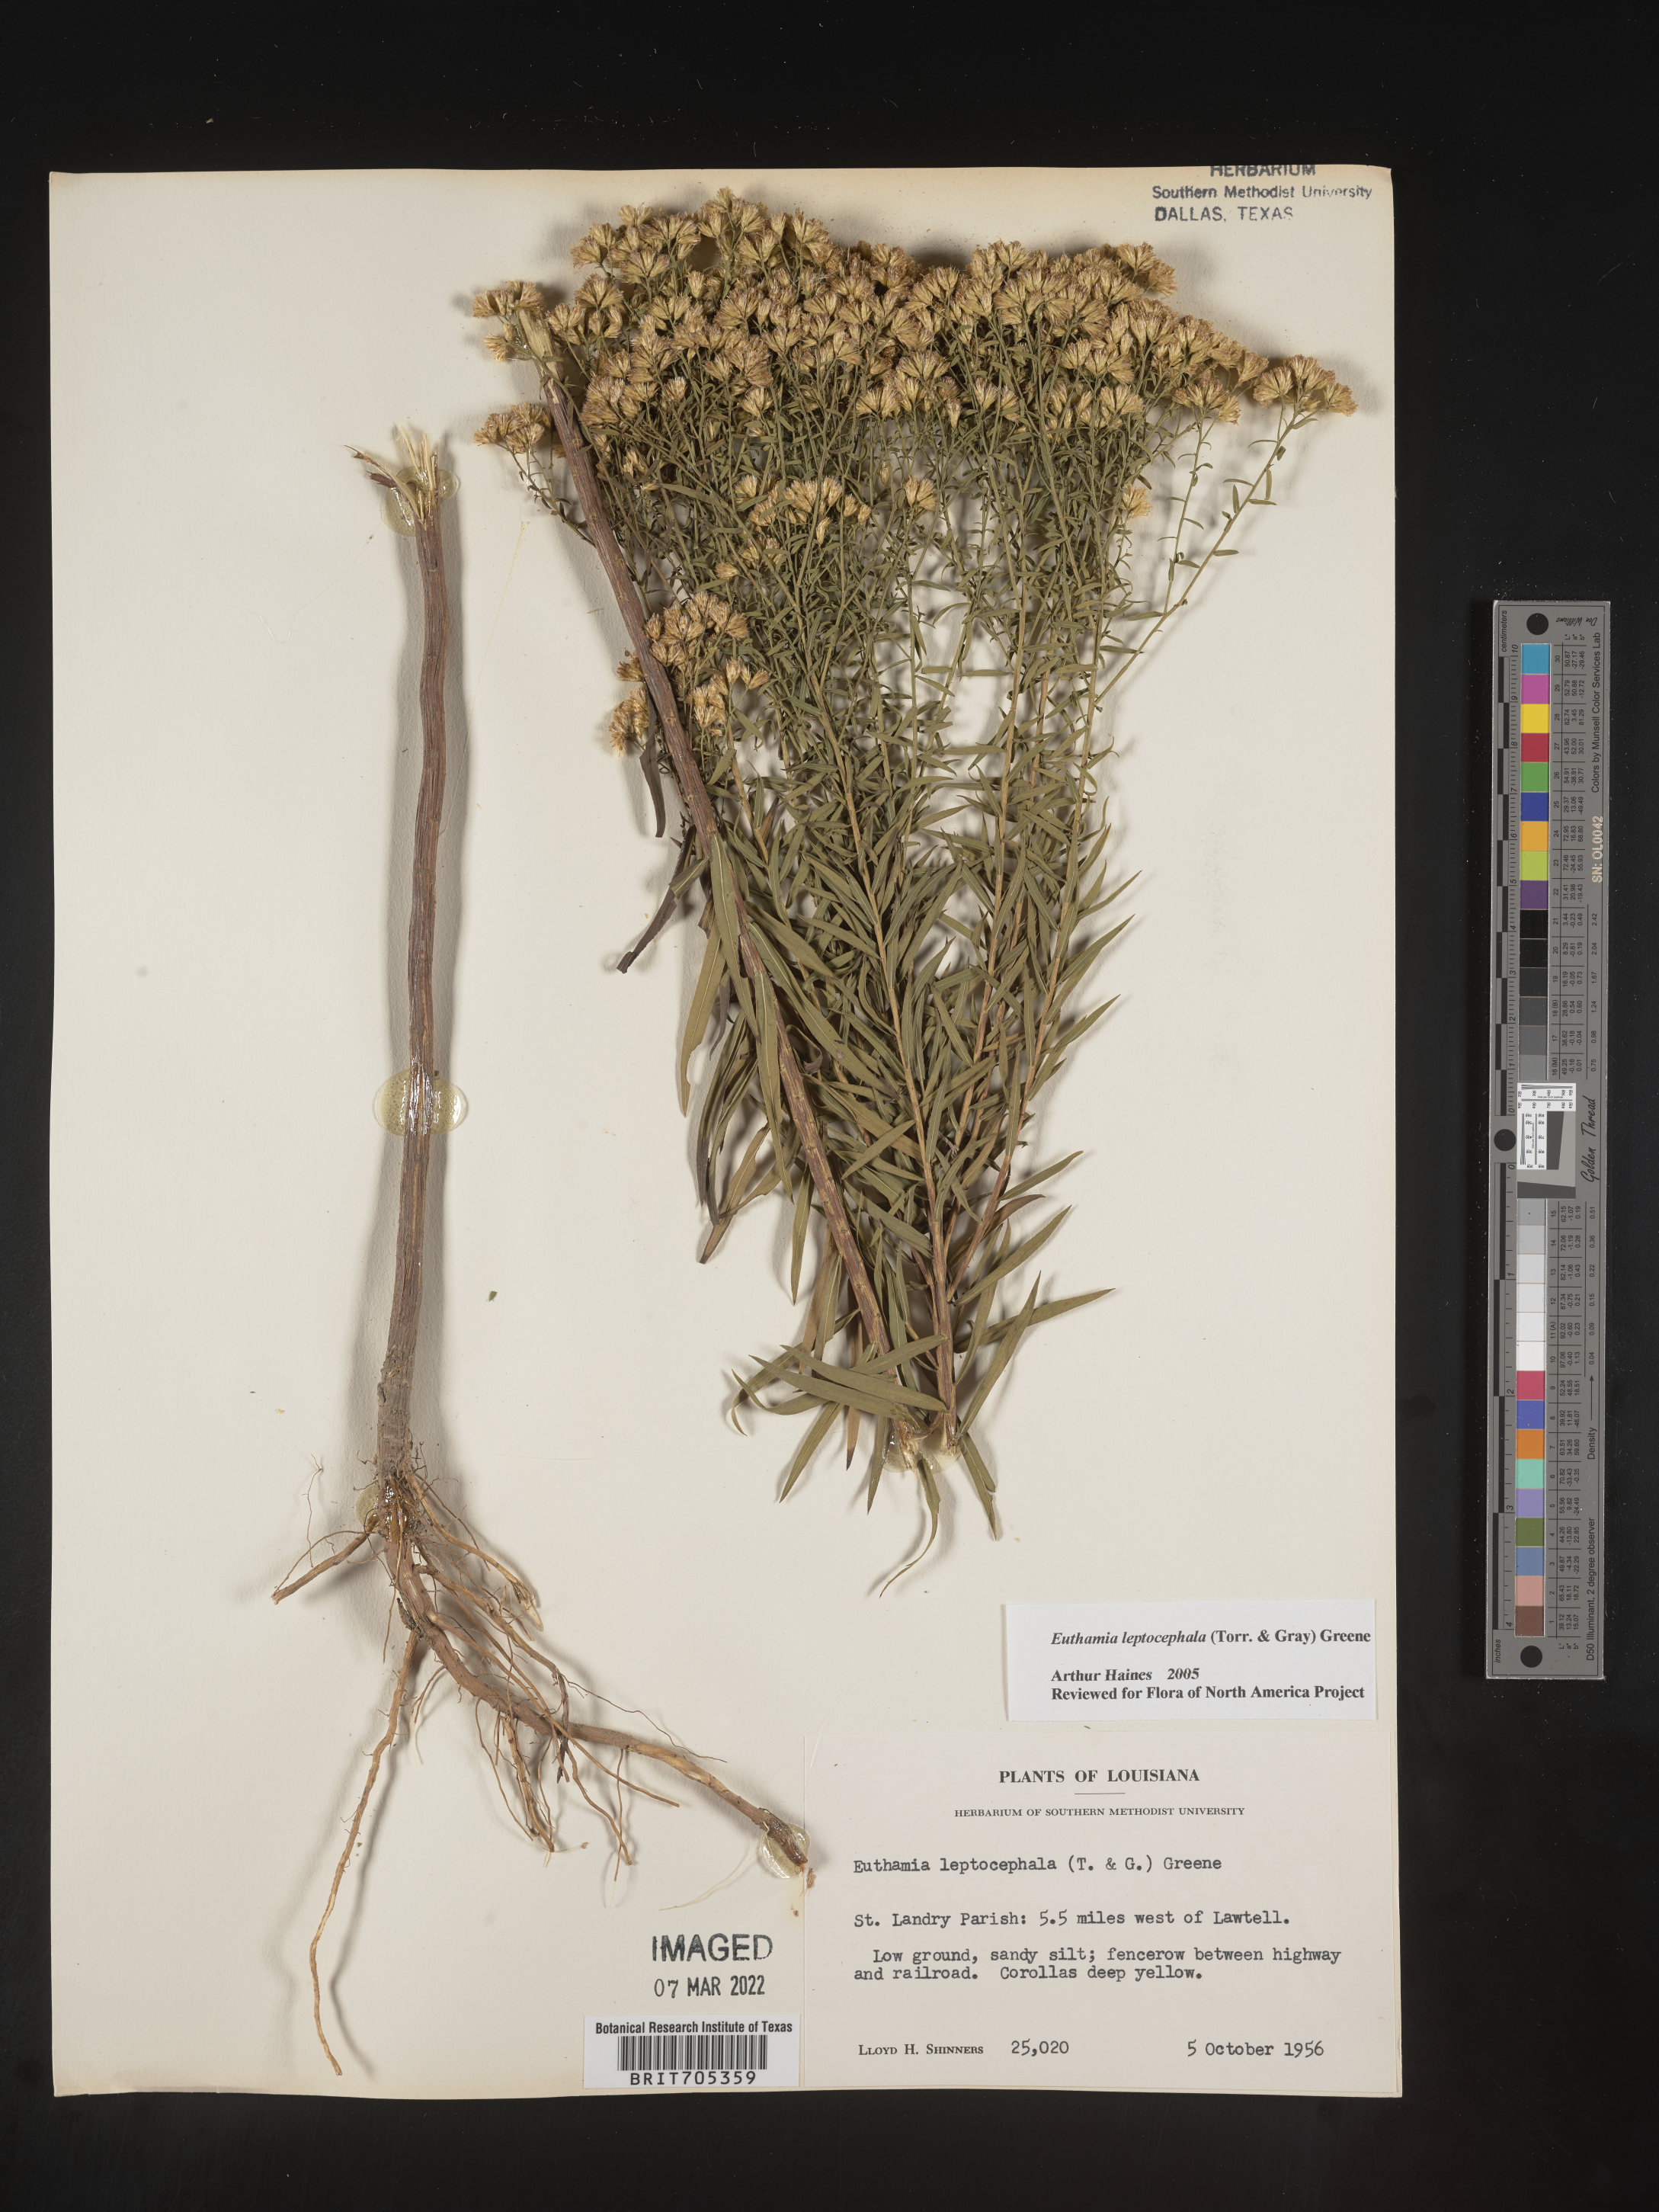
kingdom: Plantae
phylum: Tracheophyta
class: Magnoliopsida
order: Asterales
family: Asteraceae
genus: Euthamia
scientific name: Euthamia leptocephala
